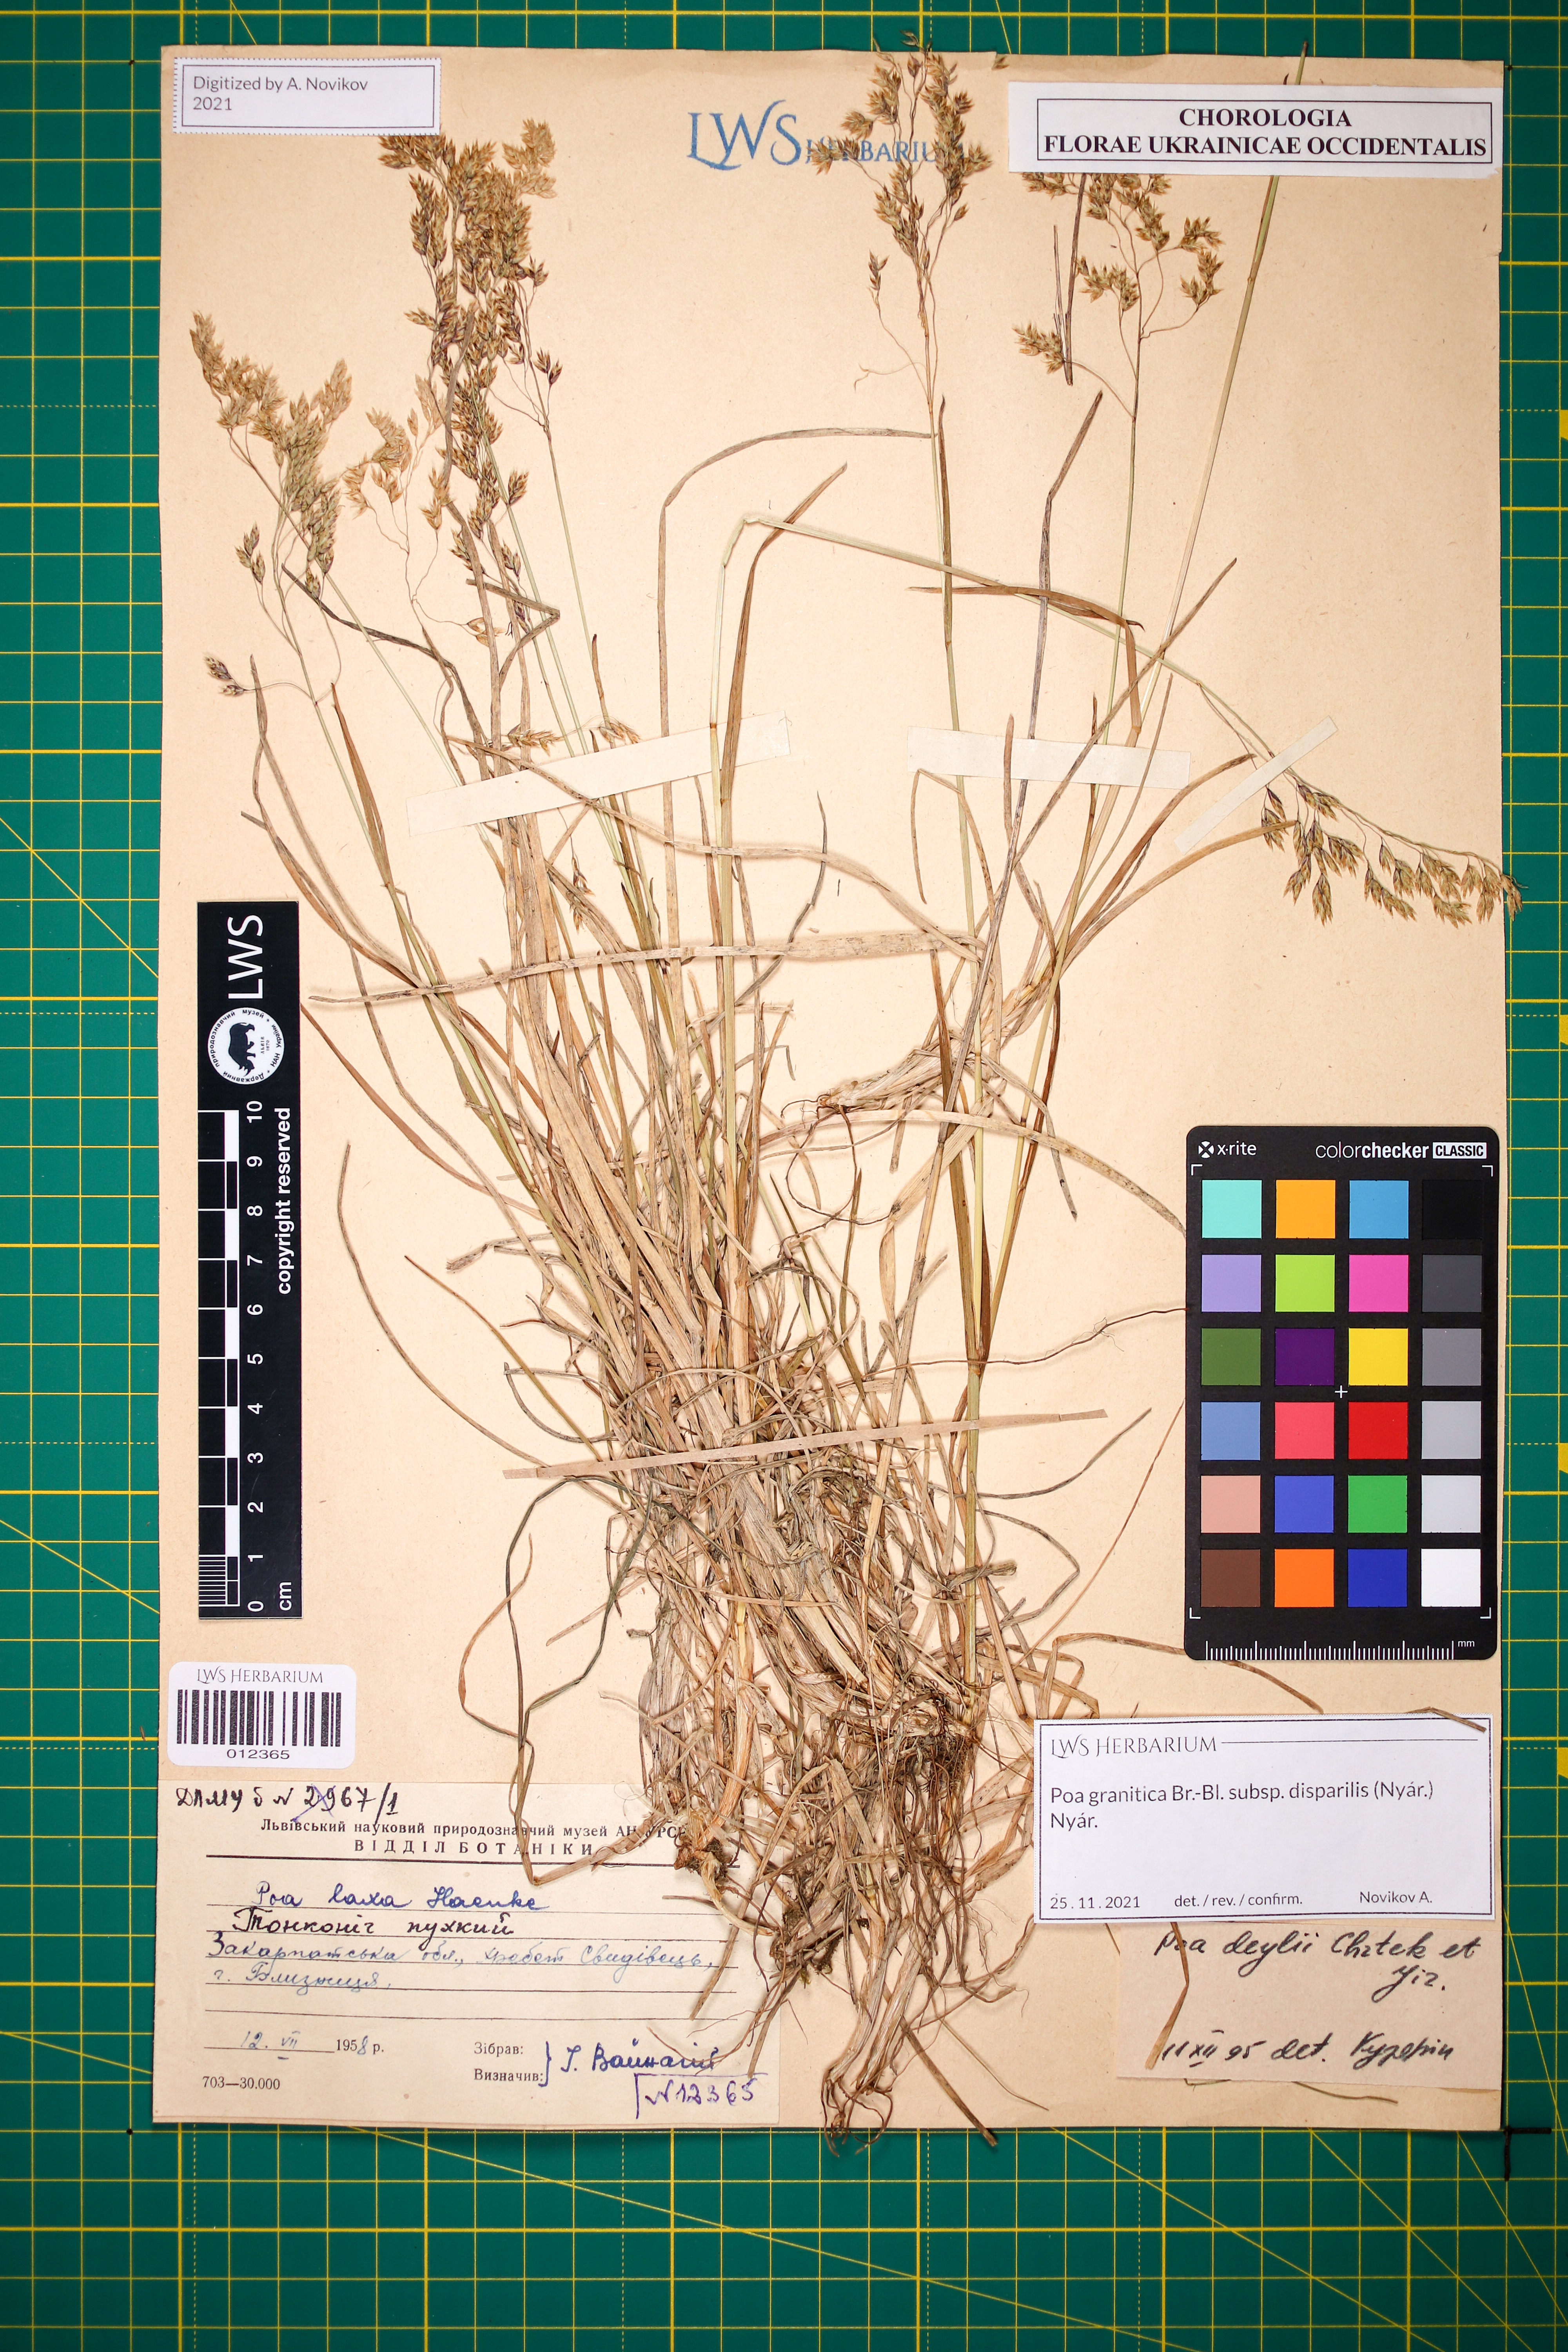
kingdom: Plantae
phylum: Tracheophyta
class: Liliopsida
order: Poales
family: Poaceae
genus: Poa
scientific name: Poa granitica
